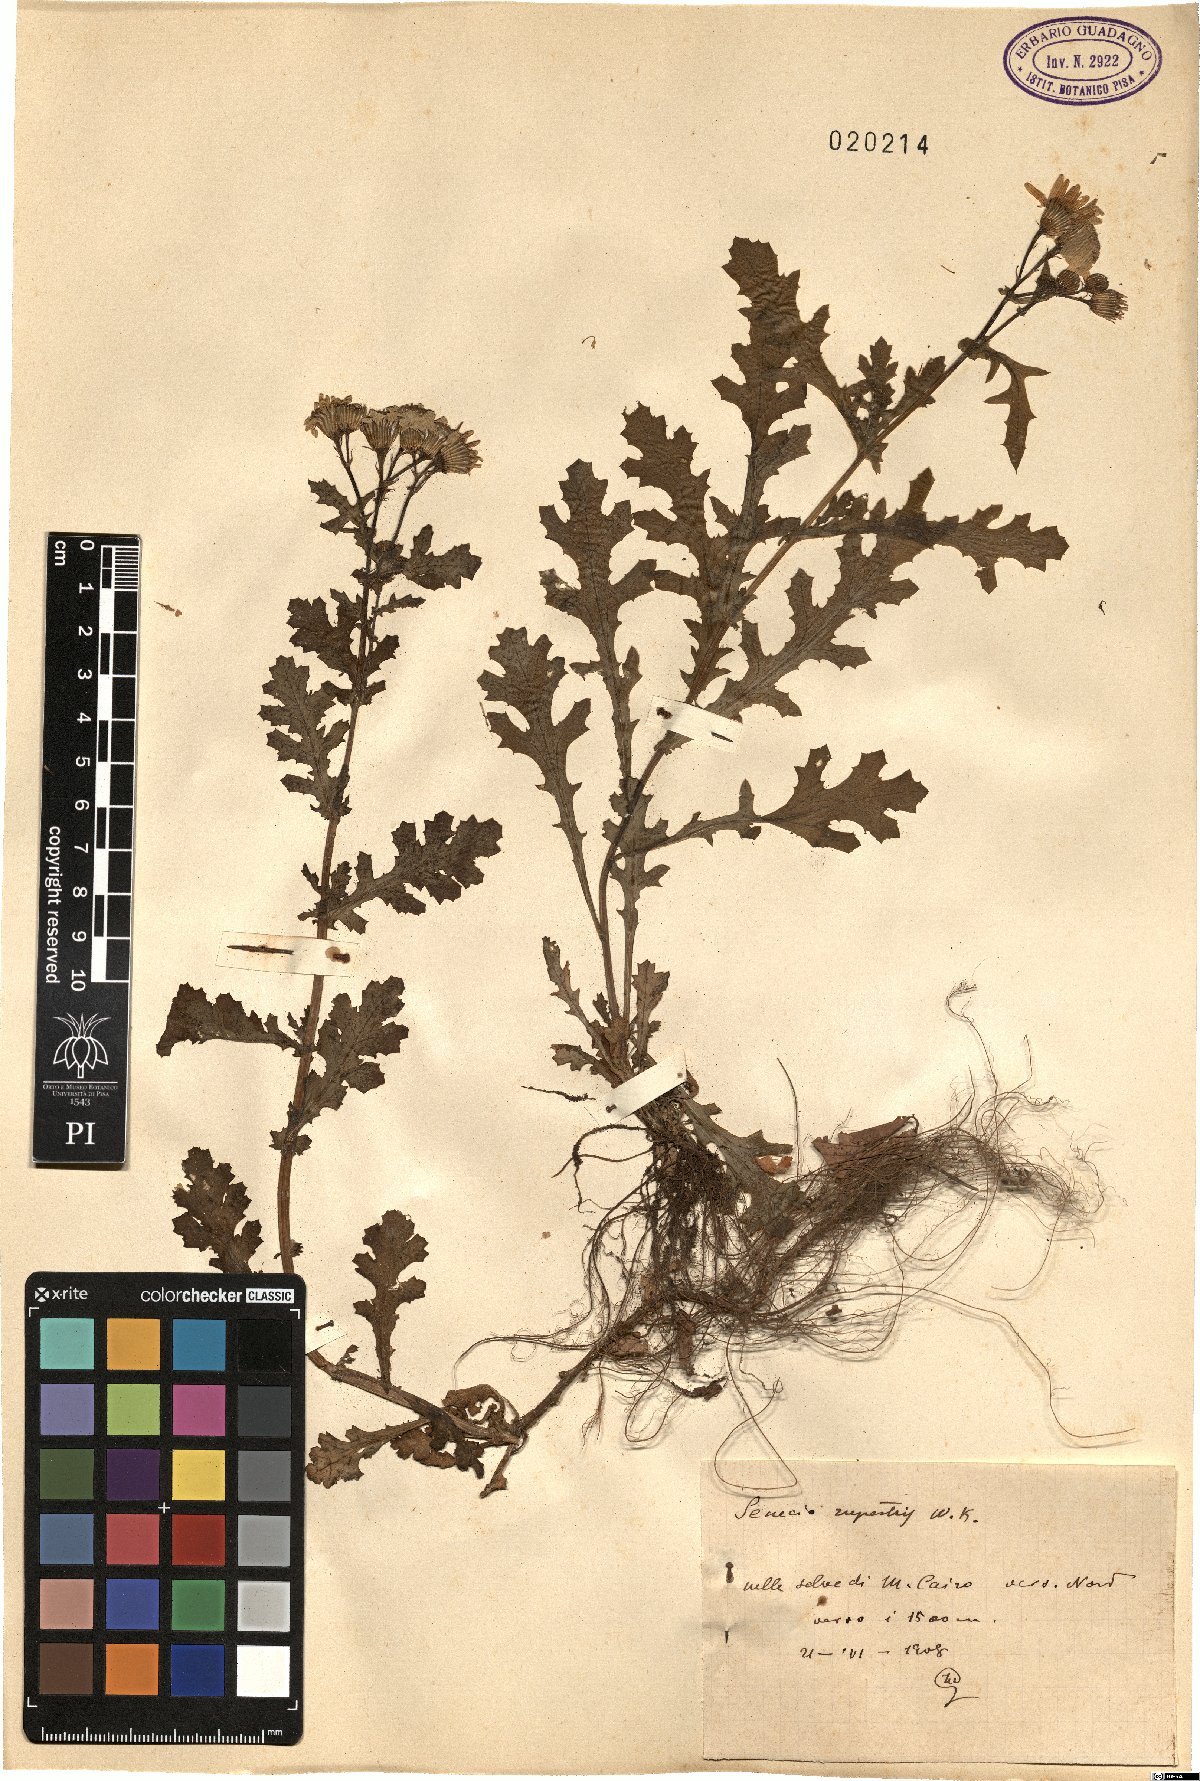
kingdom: Plantae
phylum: Tracheophyta
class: Magnoliopsida
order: Asterales
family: Asteraceae
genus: Senecio
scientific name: Senecio rupestris
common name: Rock ragwort
